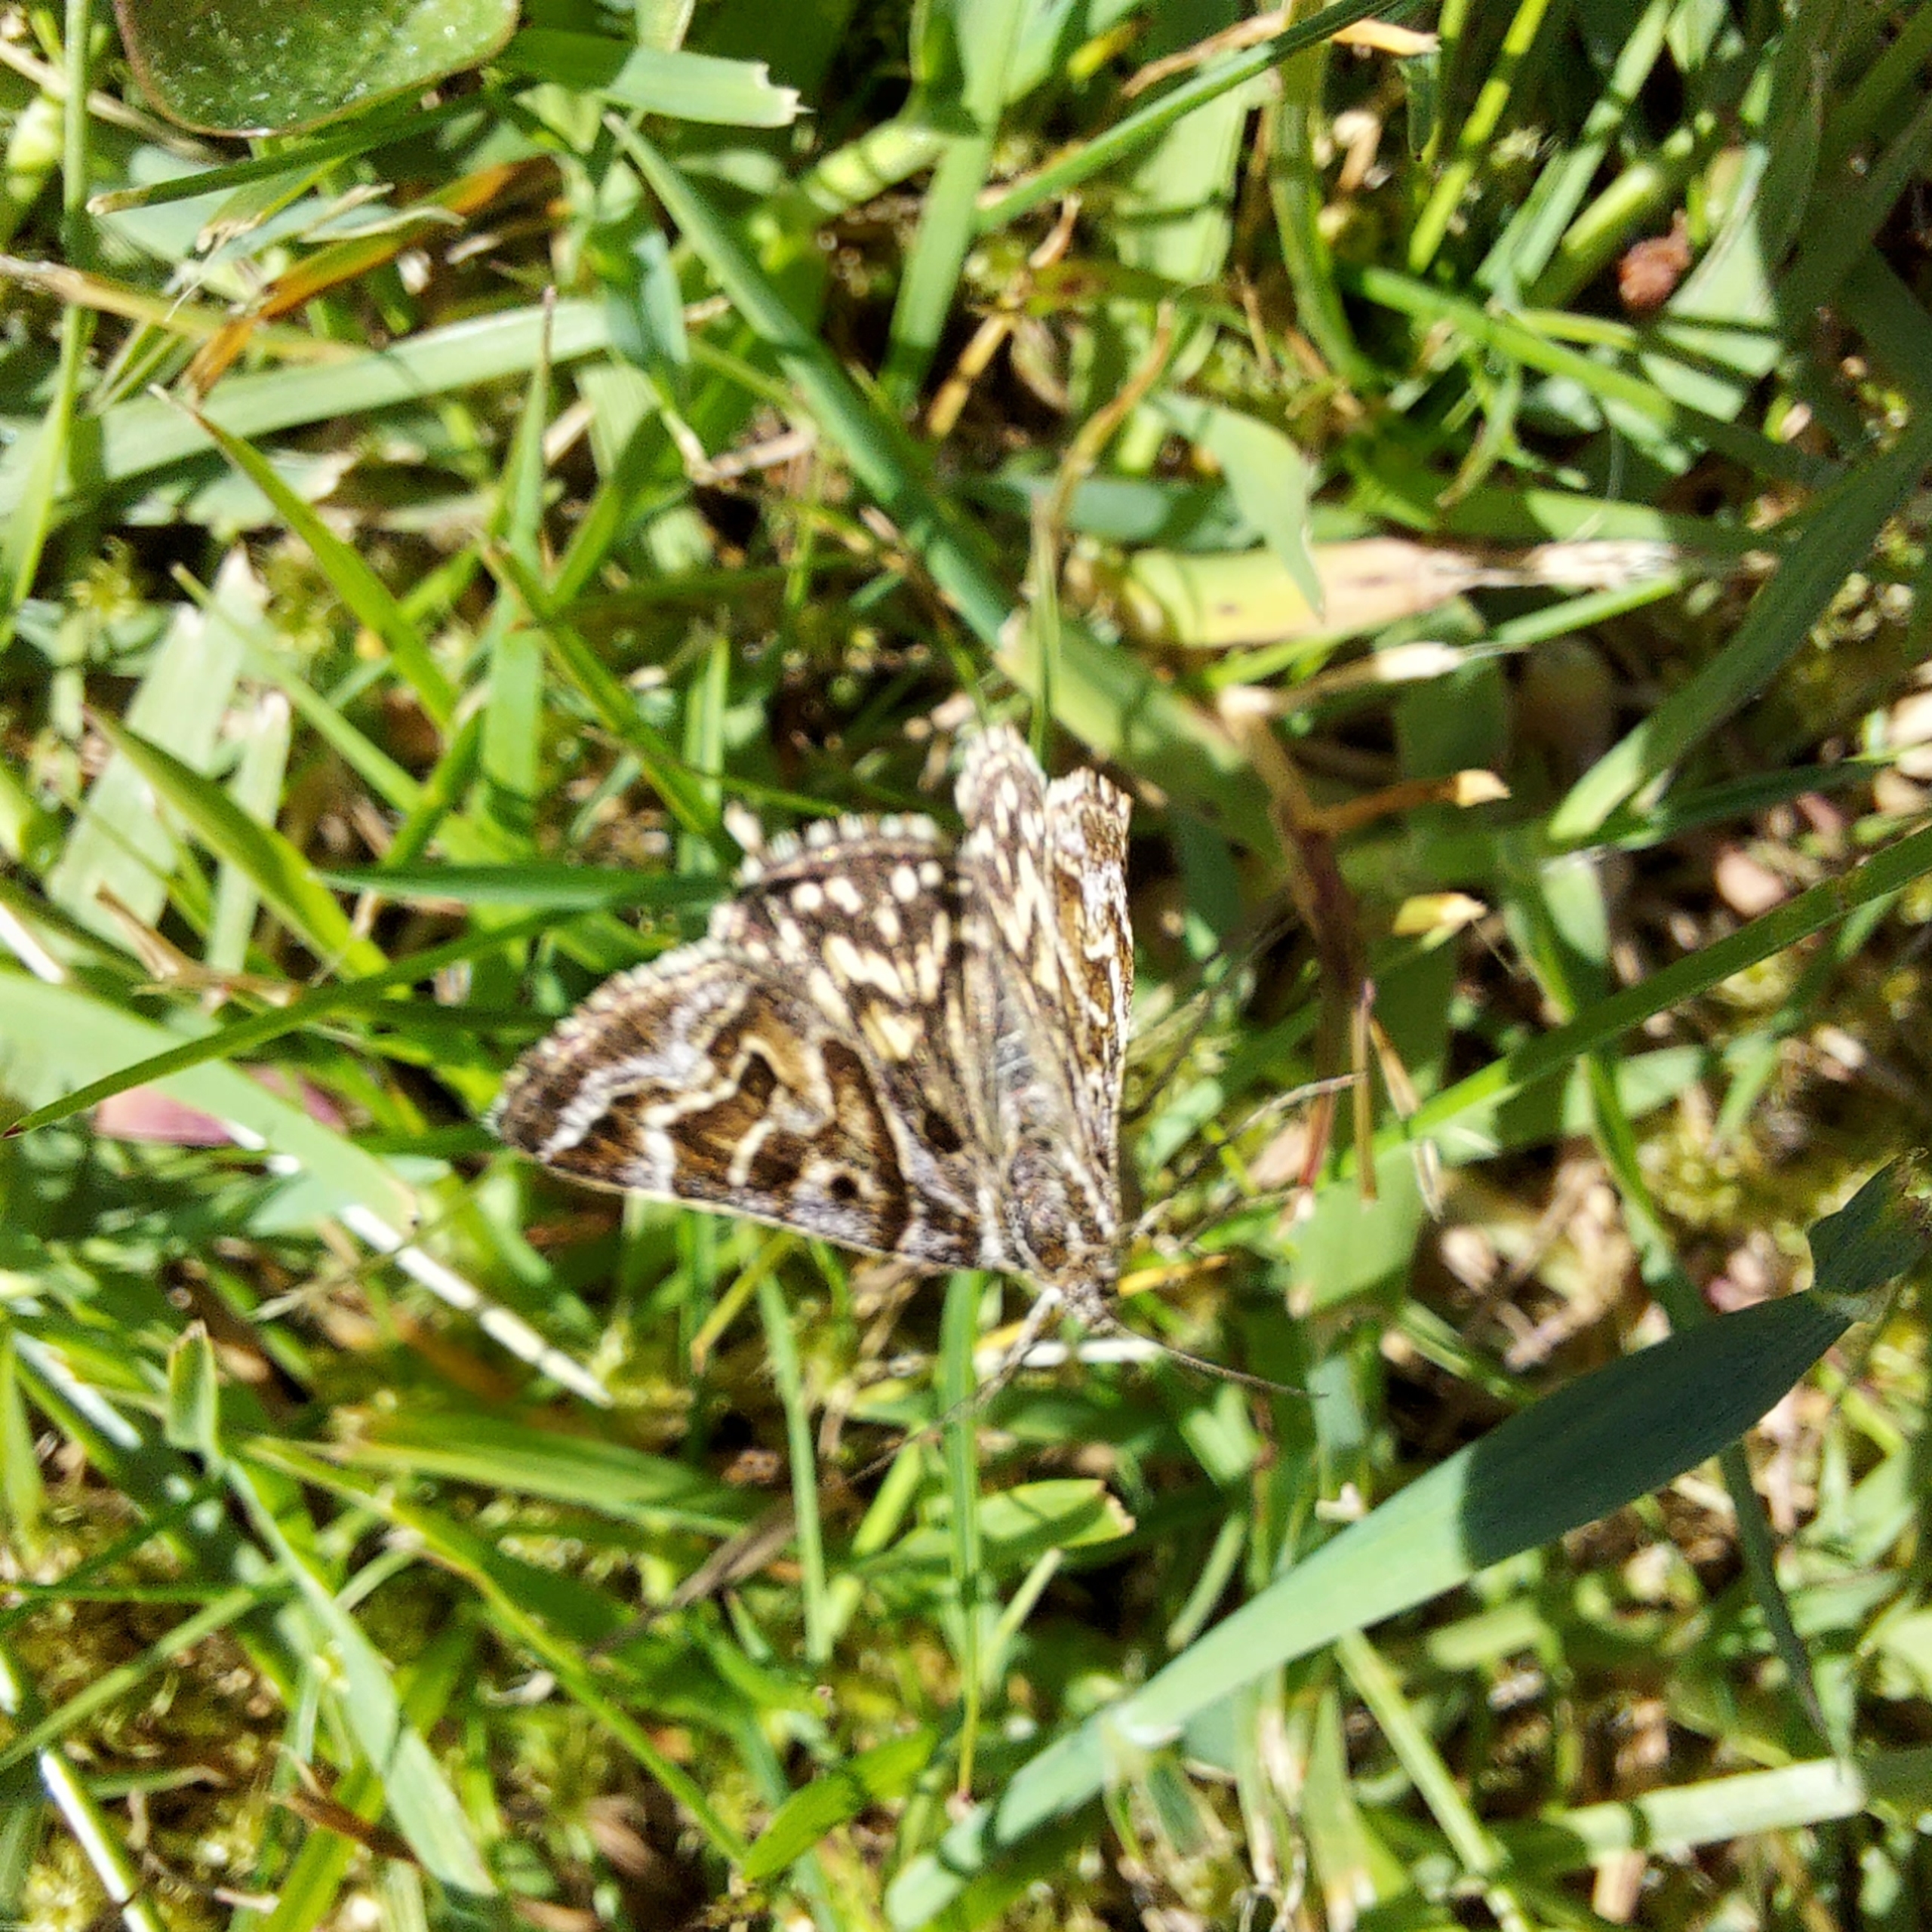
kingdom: Animalia
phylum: Arthropoda
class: Insecta
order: Lepidoptera
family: Erebidae
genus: Callistege
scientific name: Callistege mi
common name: Marmoreret kløverugle
